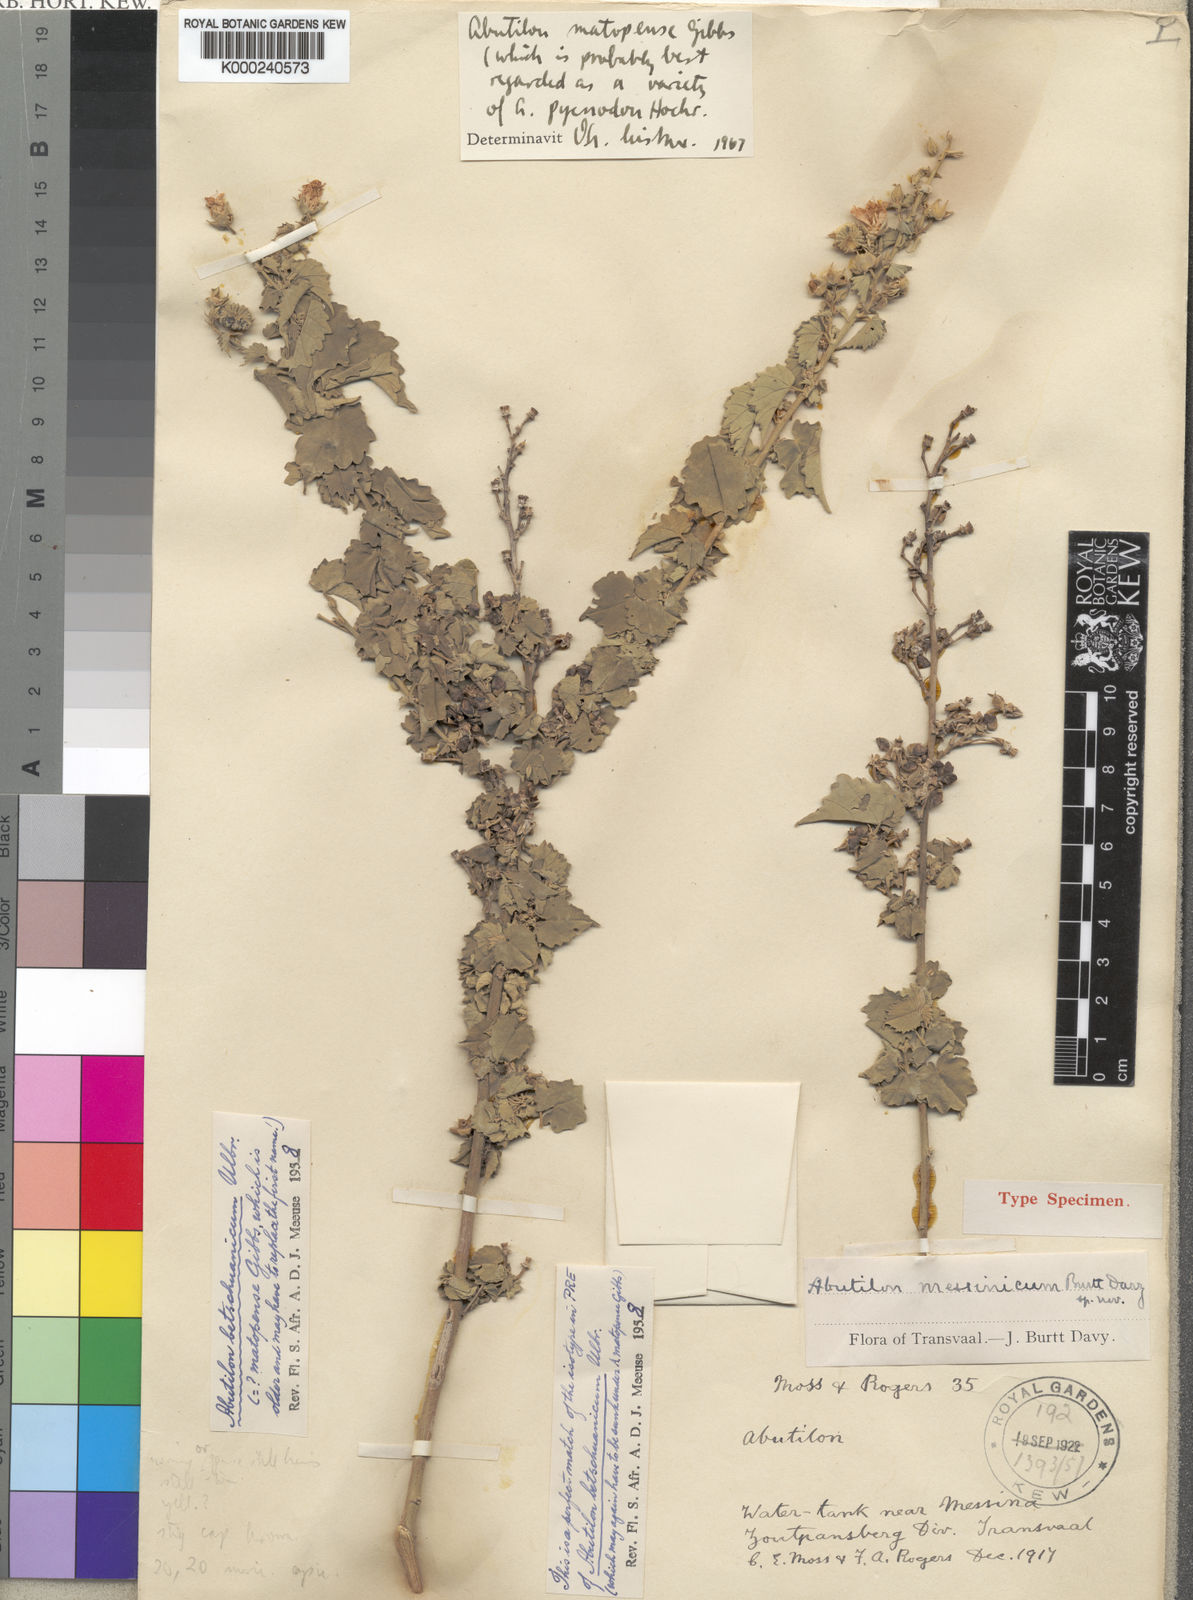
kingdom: Plantae
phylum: Tracheophyta
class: Magnoliopsida
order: Malvales
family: Malvaceae
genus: Abutilon
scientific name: Abutilon pycnodon
